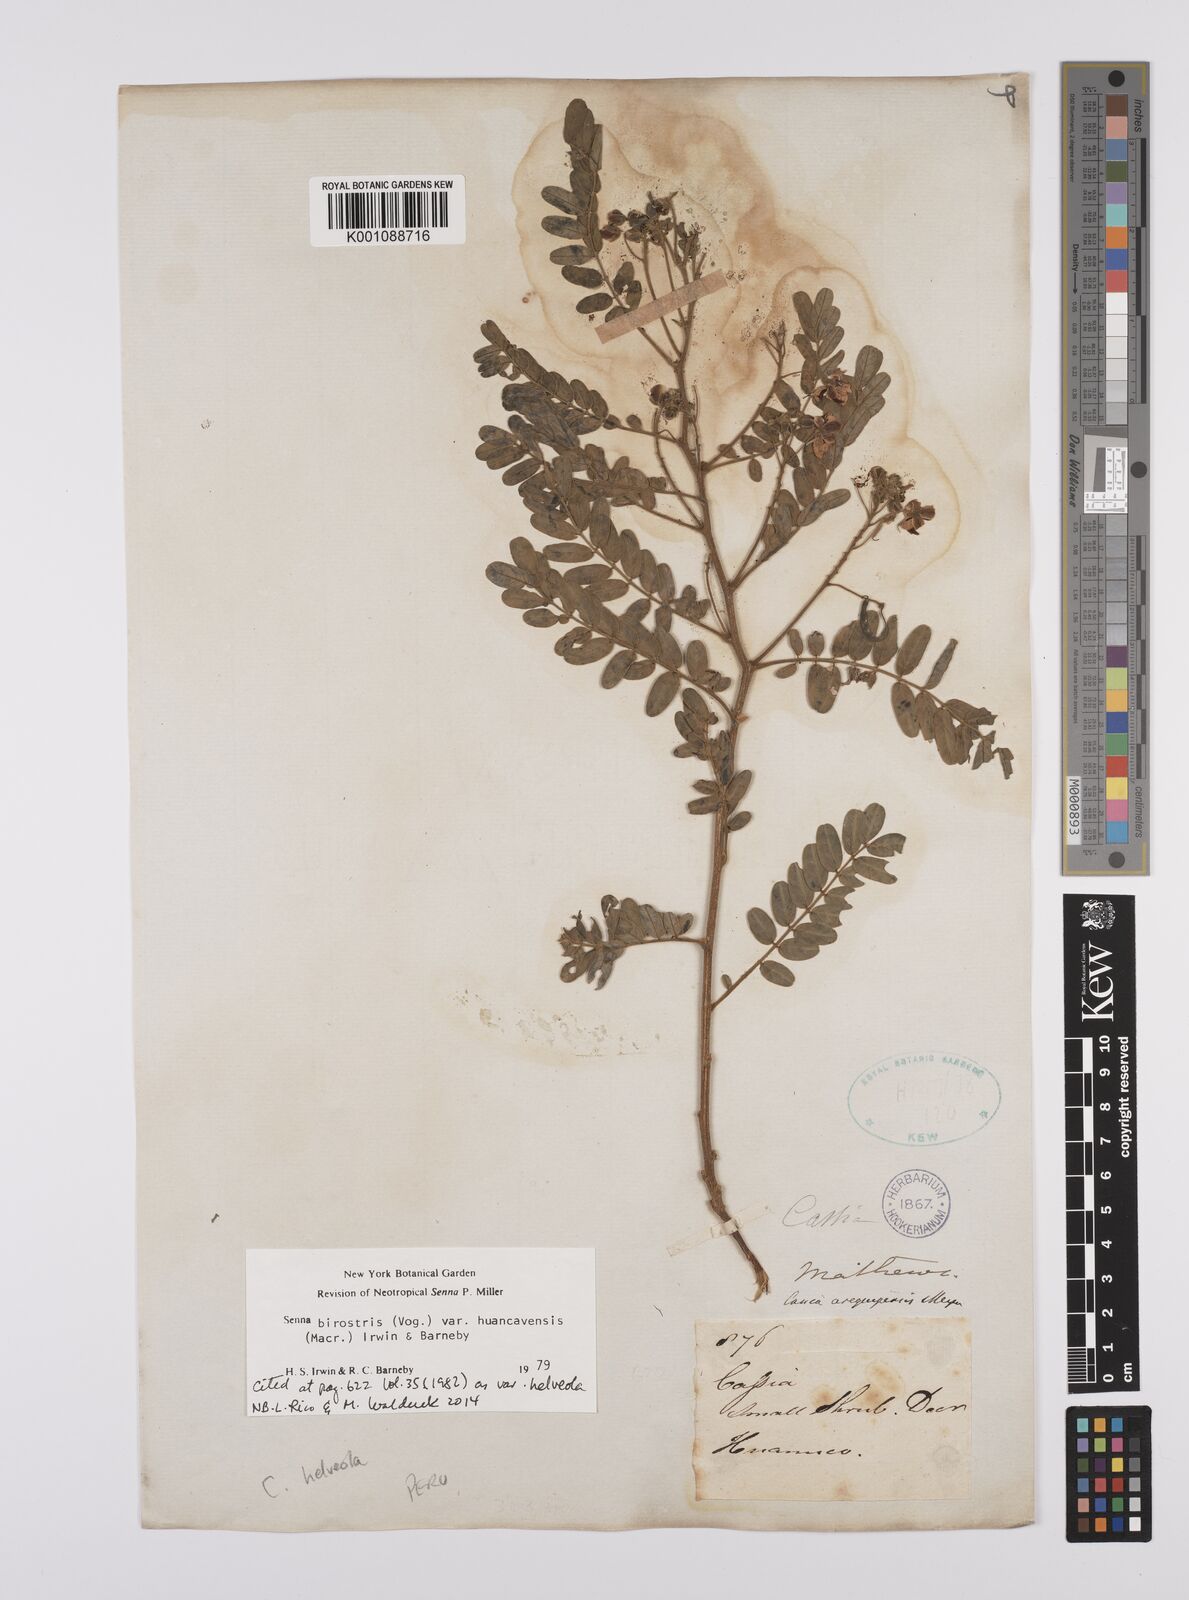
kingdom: Plantae
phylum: Tracheophyta
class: Magnoliopsida
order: Fabales
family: Fabaceae
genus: Senna
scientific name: Senna birostris
